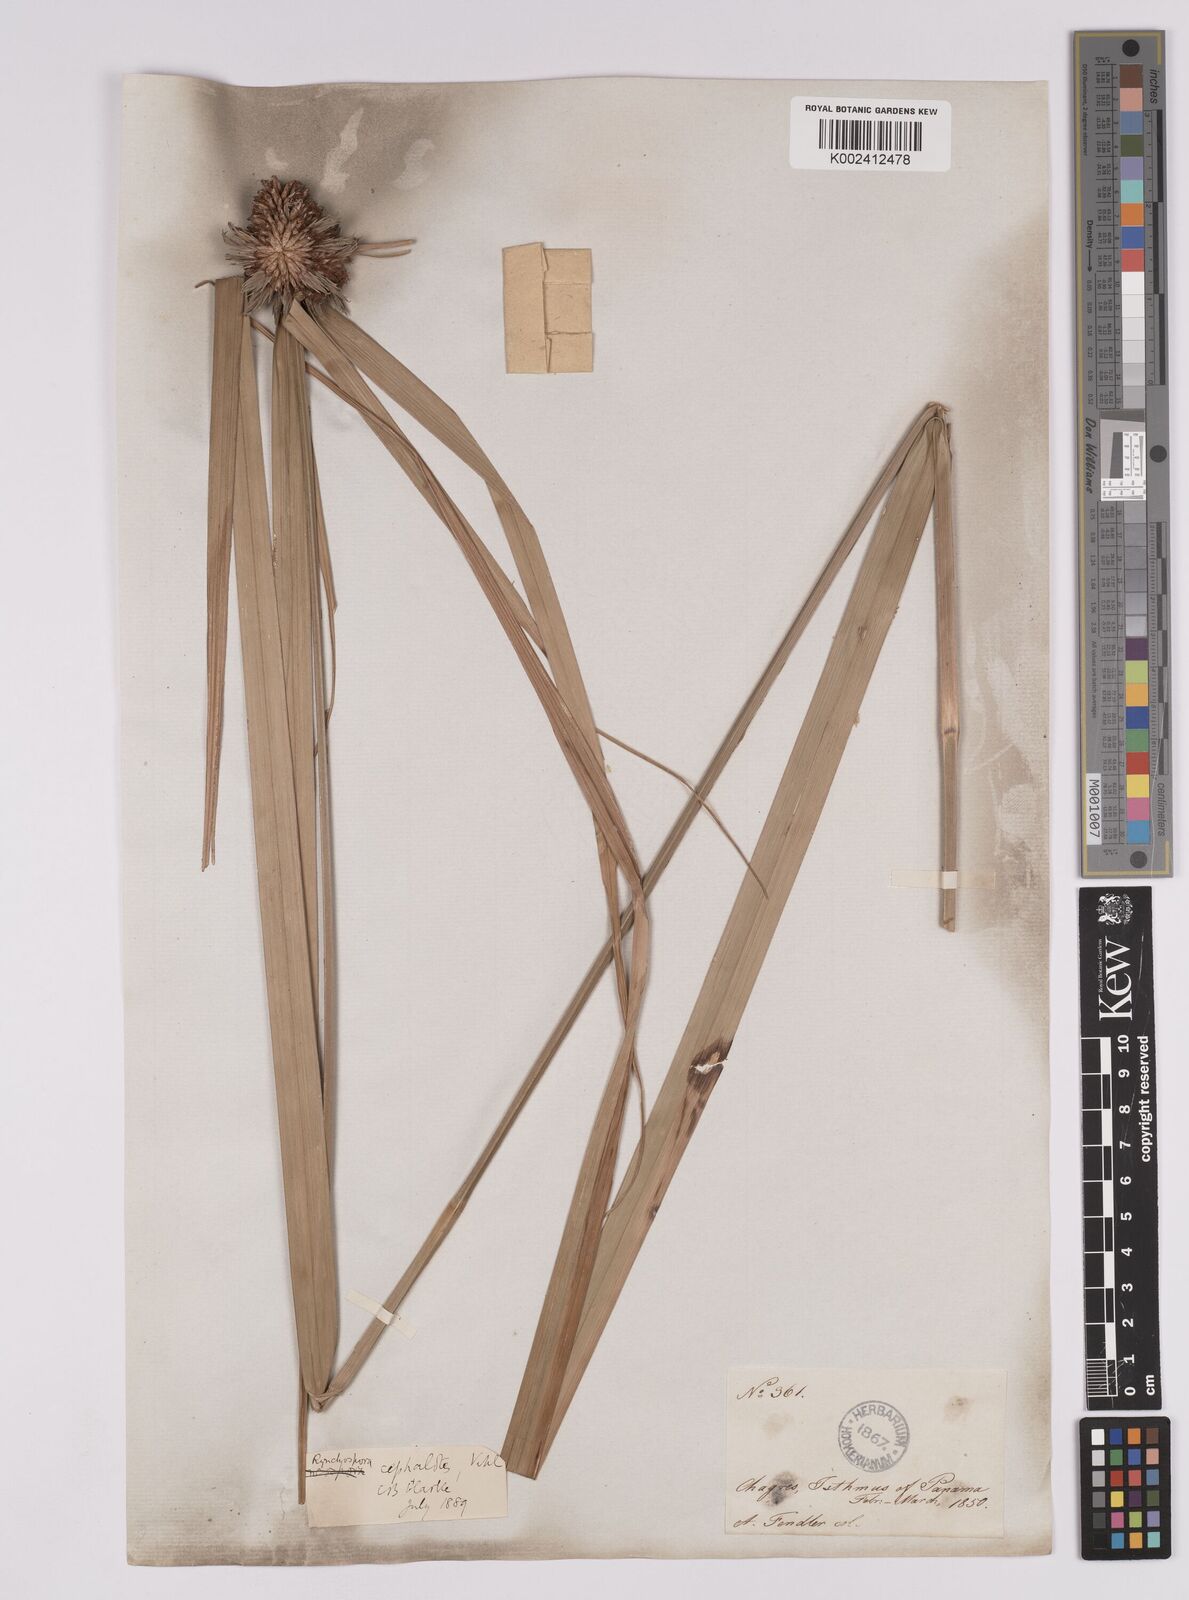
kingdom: Plantae
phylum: Tracheophyta
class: Liliopsida
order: Poales
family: Cyperaceae
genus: Rhynchospora
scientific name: Rhynchospora cephalotes
